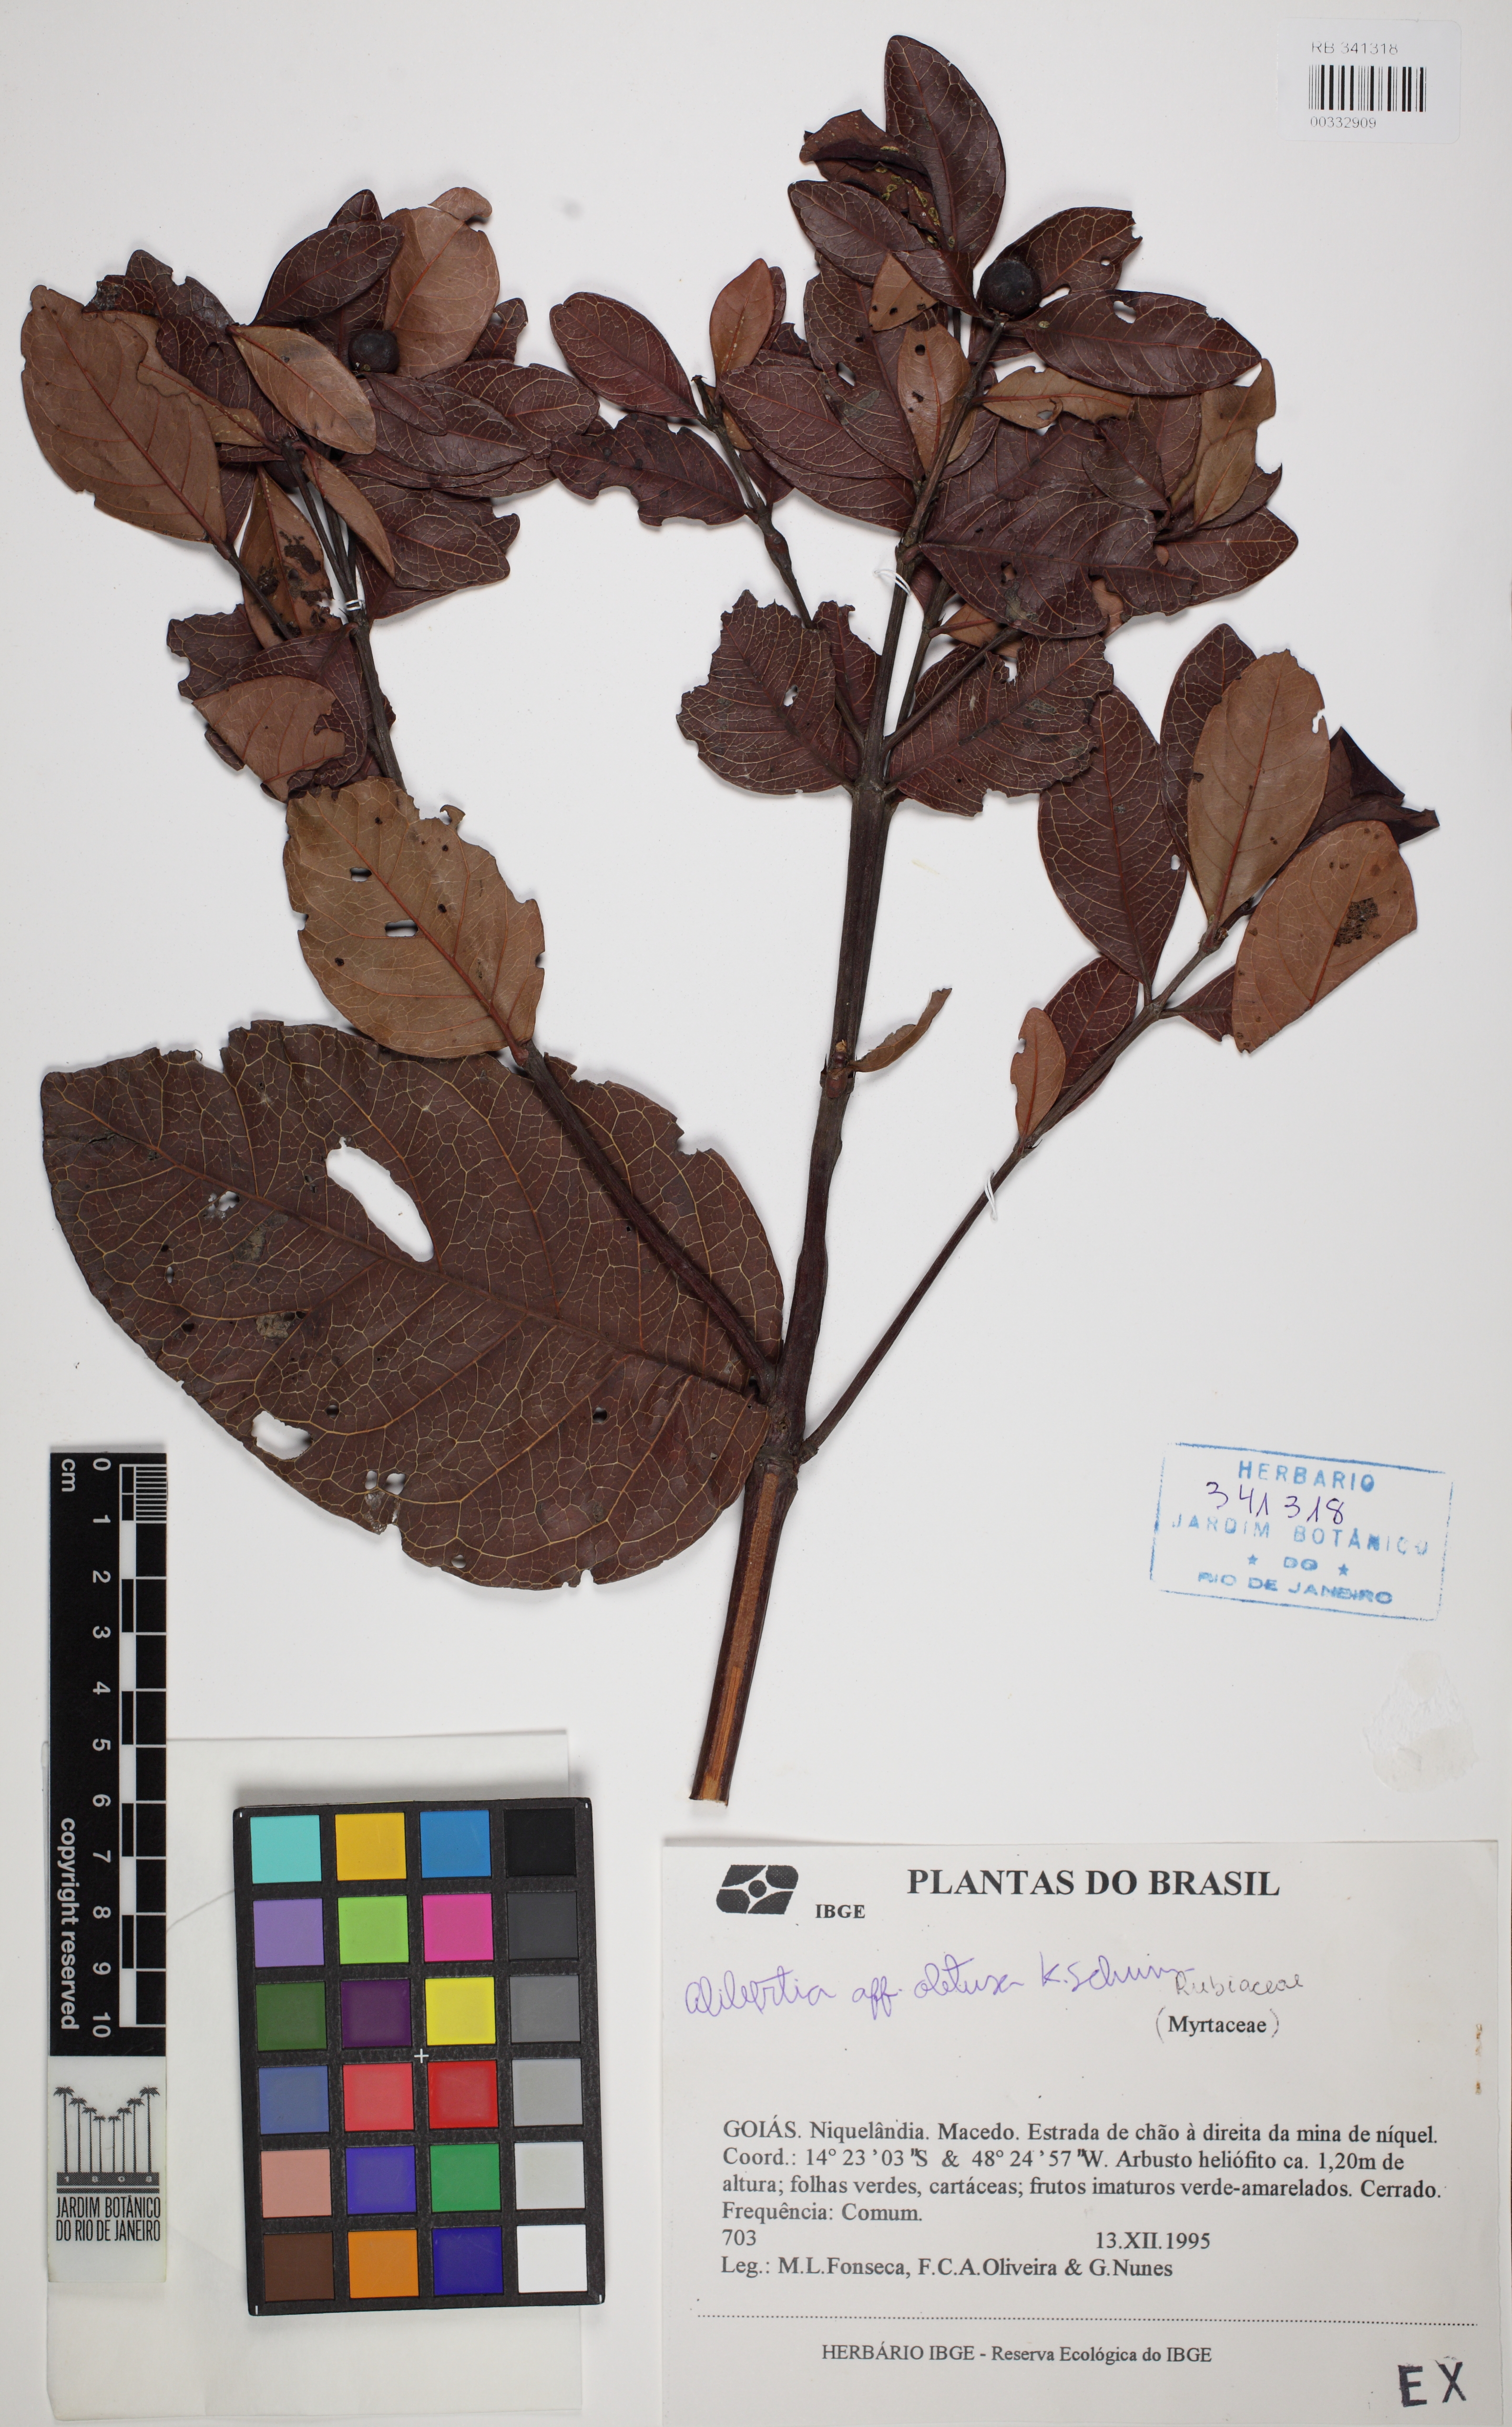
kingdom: Plantae
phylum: Tracheophyta
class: Magnoliopsida
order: Gentianales
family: Rubiaceae
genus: Cordiera
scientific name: Cordiera elliptica
